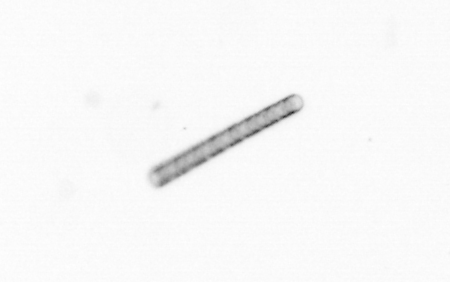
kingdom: Chromista
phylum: Ochrophyta
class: Bacillariophyceae
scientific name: Bacillariophyceae
